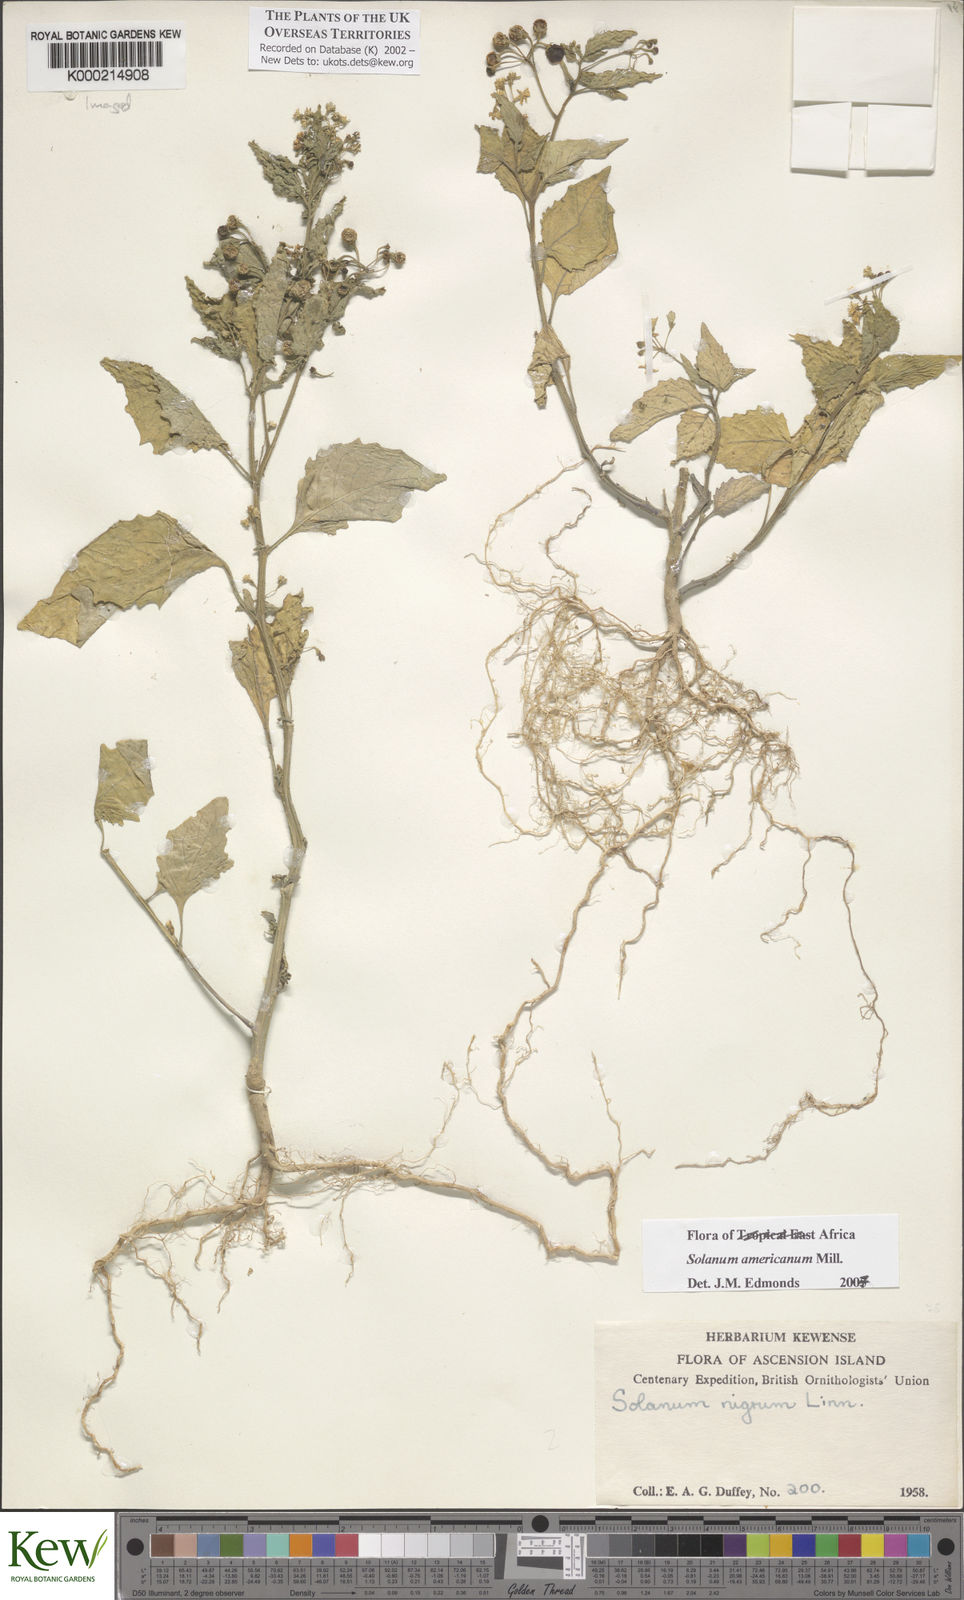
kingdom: Plantae
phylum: Tracheophyta
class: Magnoliopsida
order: Solanales
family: Solanaceae
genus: Solanum
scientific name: Solanum americanum
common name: American black nightshade
